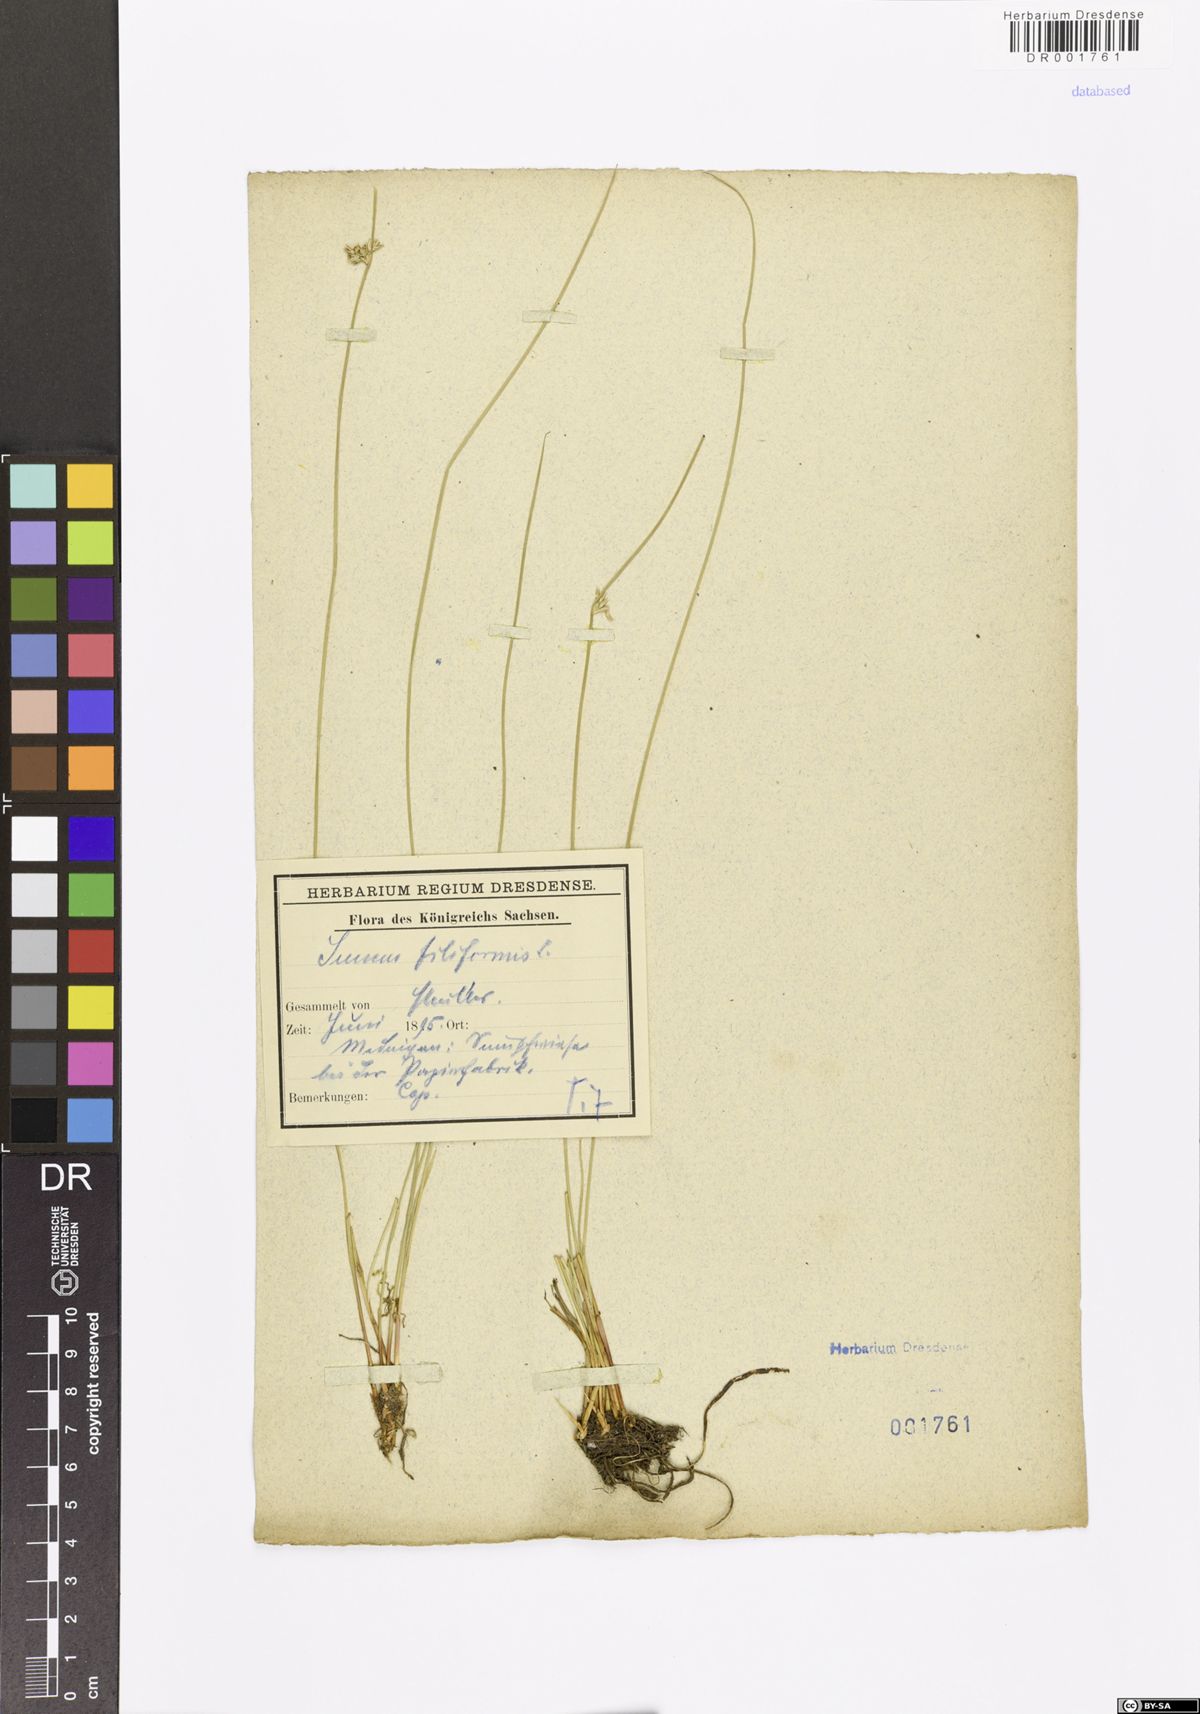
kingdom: Plantae
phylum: Tracheophyta
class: Liliopsida
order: Poales
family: Juncaceae
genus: Juncus
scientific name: Juncus filiformis
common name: Thread rush
